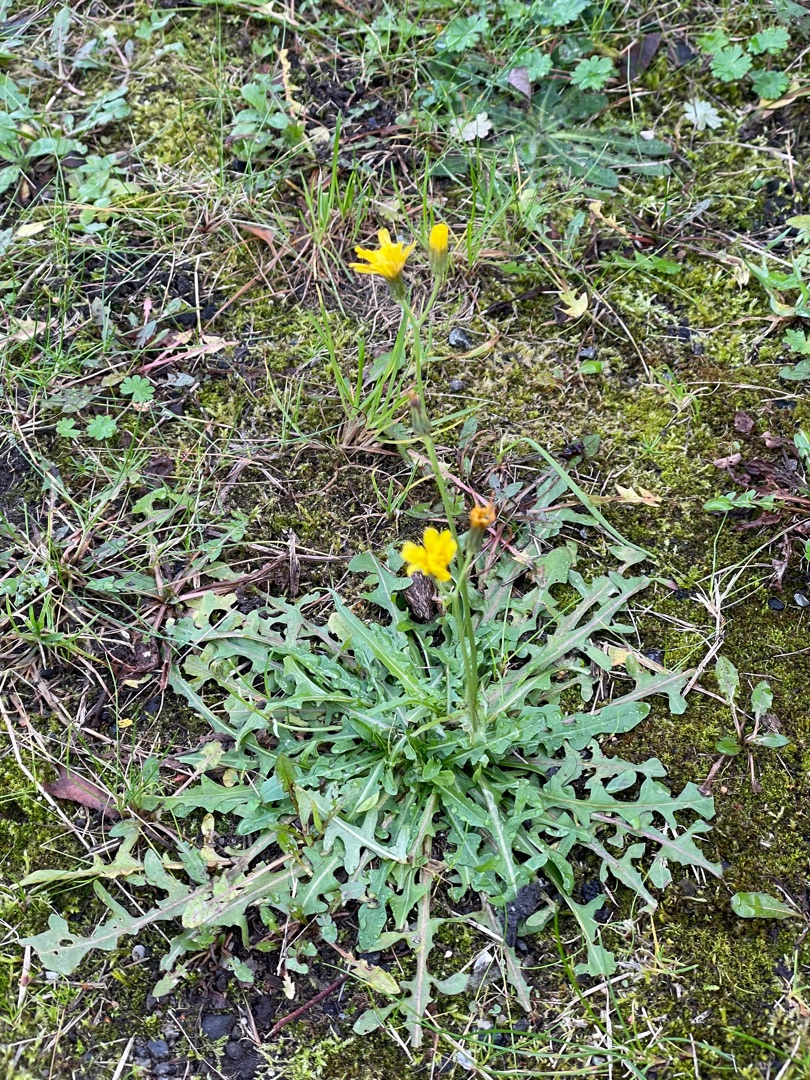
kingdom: Plantae
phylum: Tracheophyta
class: Magnoliopsida
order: Asterales
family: Asteraceae
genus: Scorzoneroides
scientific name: Scorzoneroides autumnalis
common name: Høst-borst
